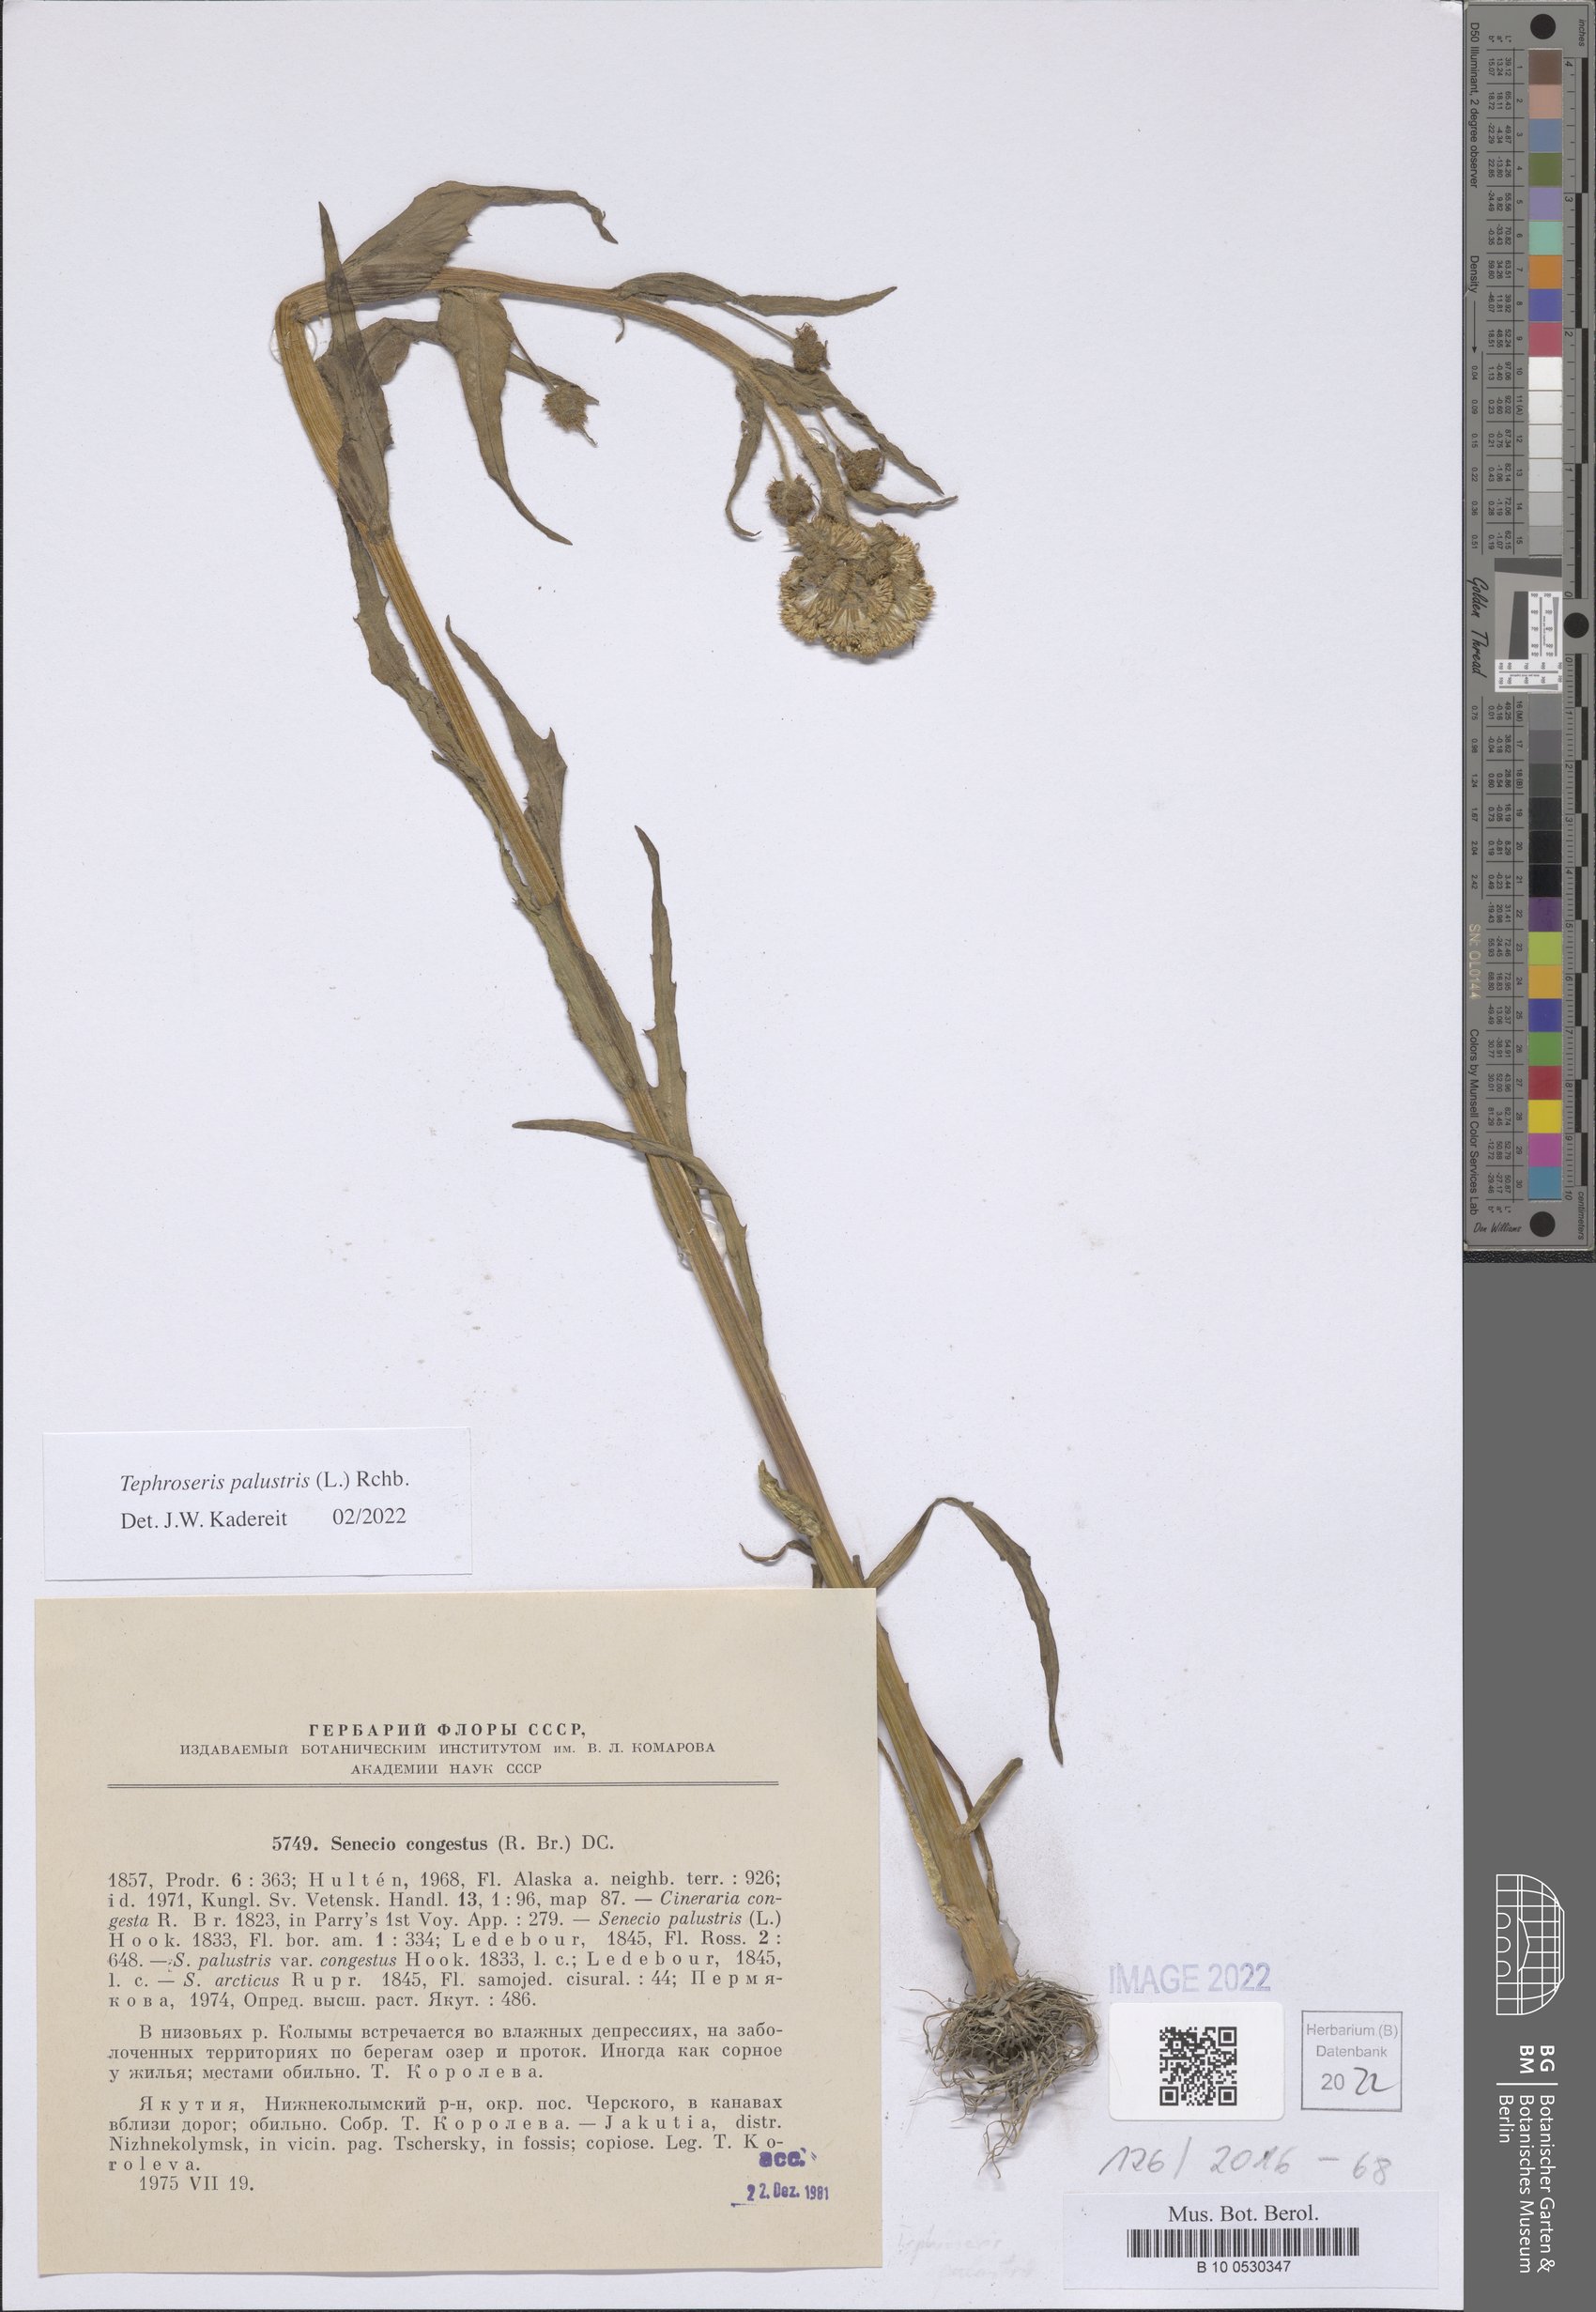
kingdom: Plantae
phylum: Tracheophyta
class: Magnoliopsida
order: Asterales
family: Asteraceae
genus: Tephroseris
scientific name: Tephroseris palustris
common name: Marsh fleawort
